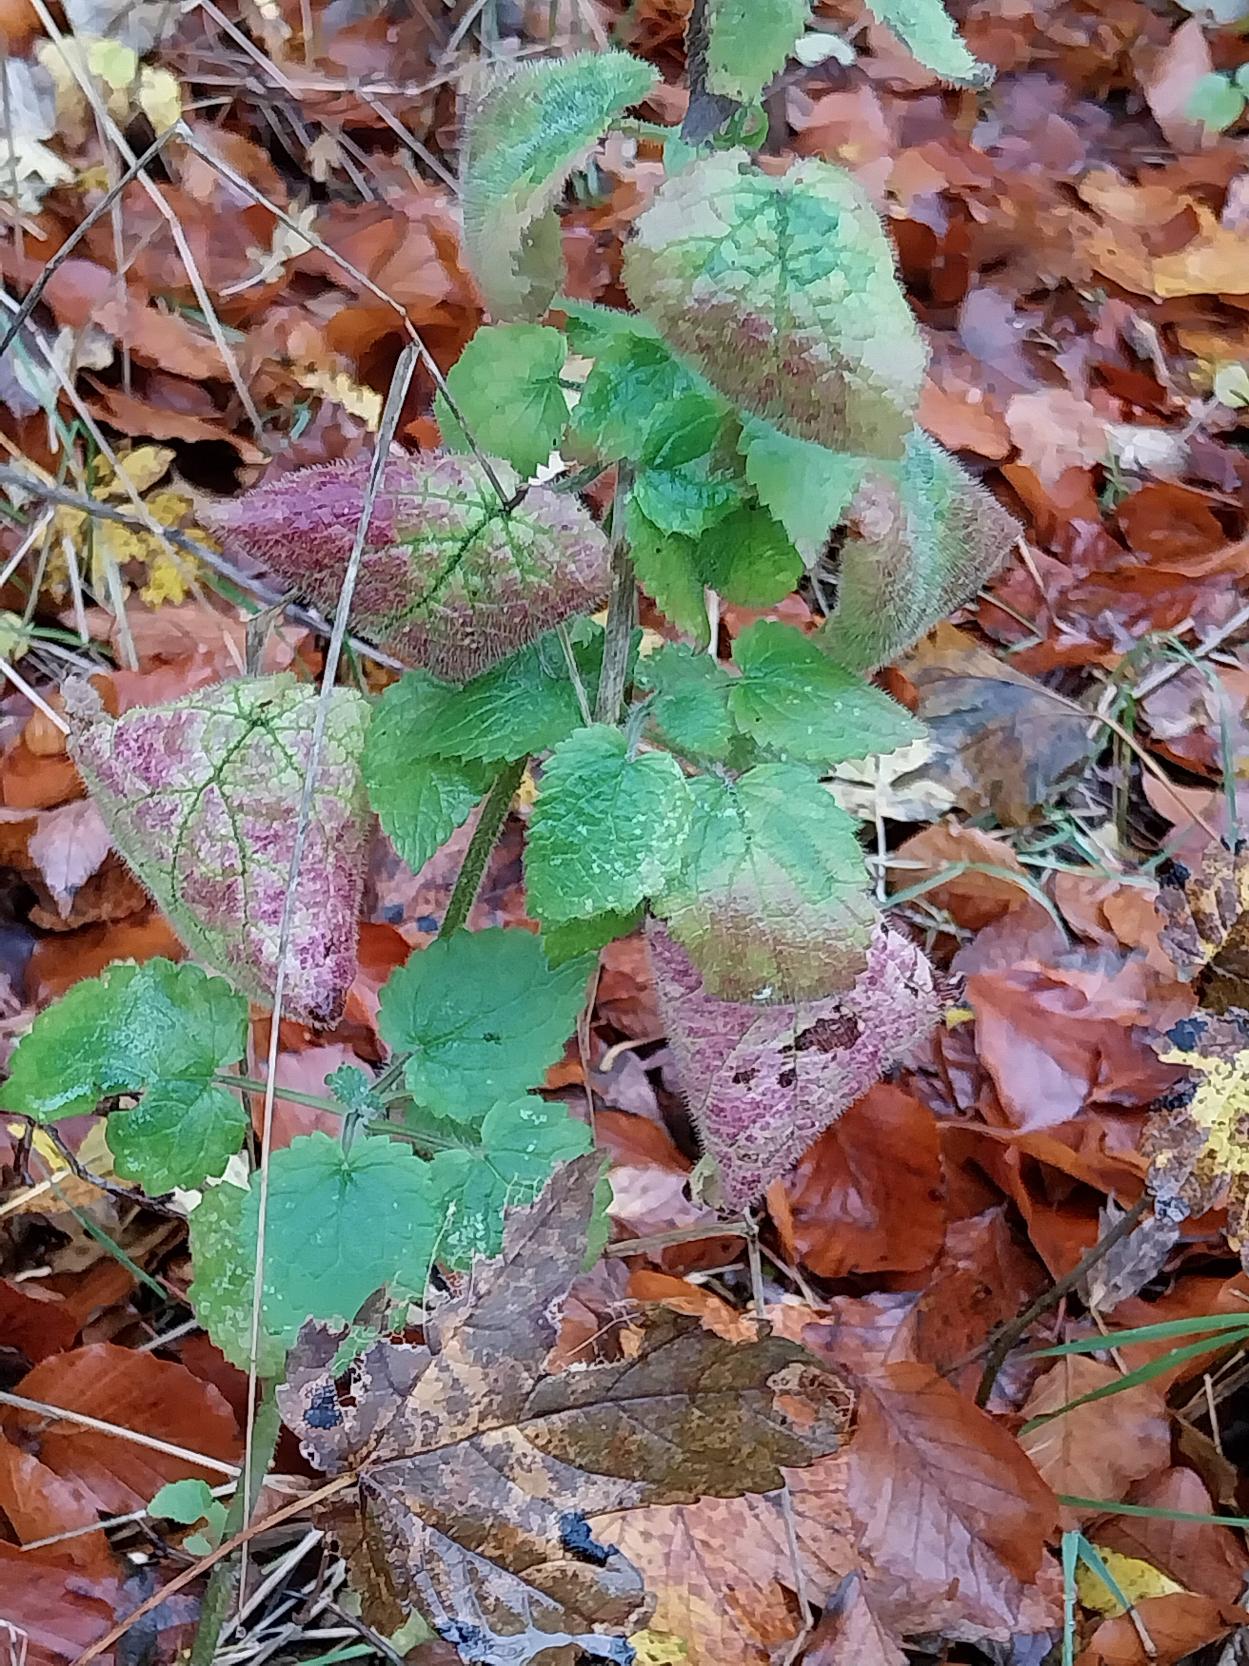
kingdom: Plantae
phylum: Tracheophyta
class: Magnoliopsida
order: Lamiales
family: Lamiaceae
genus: Stachys
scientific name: Stachys sylvatica
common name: Skov-galtetand
